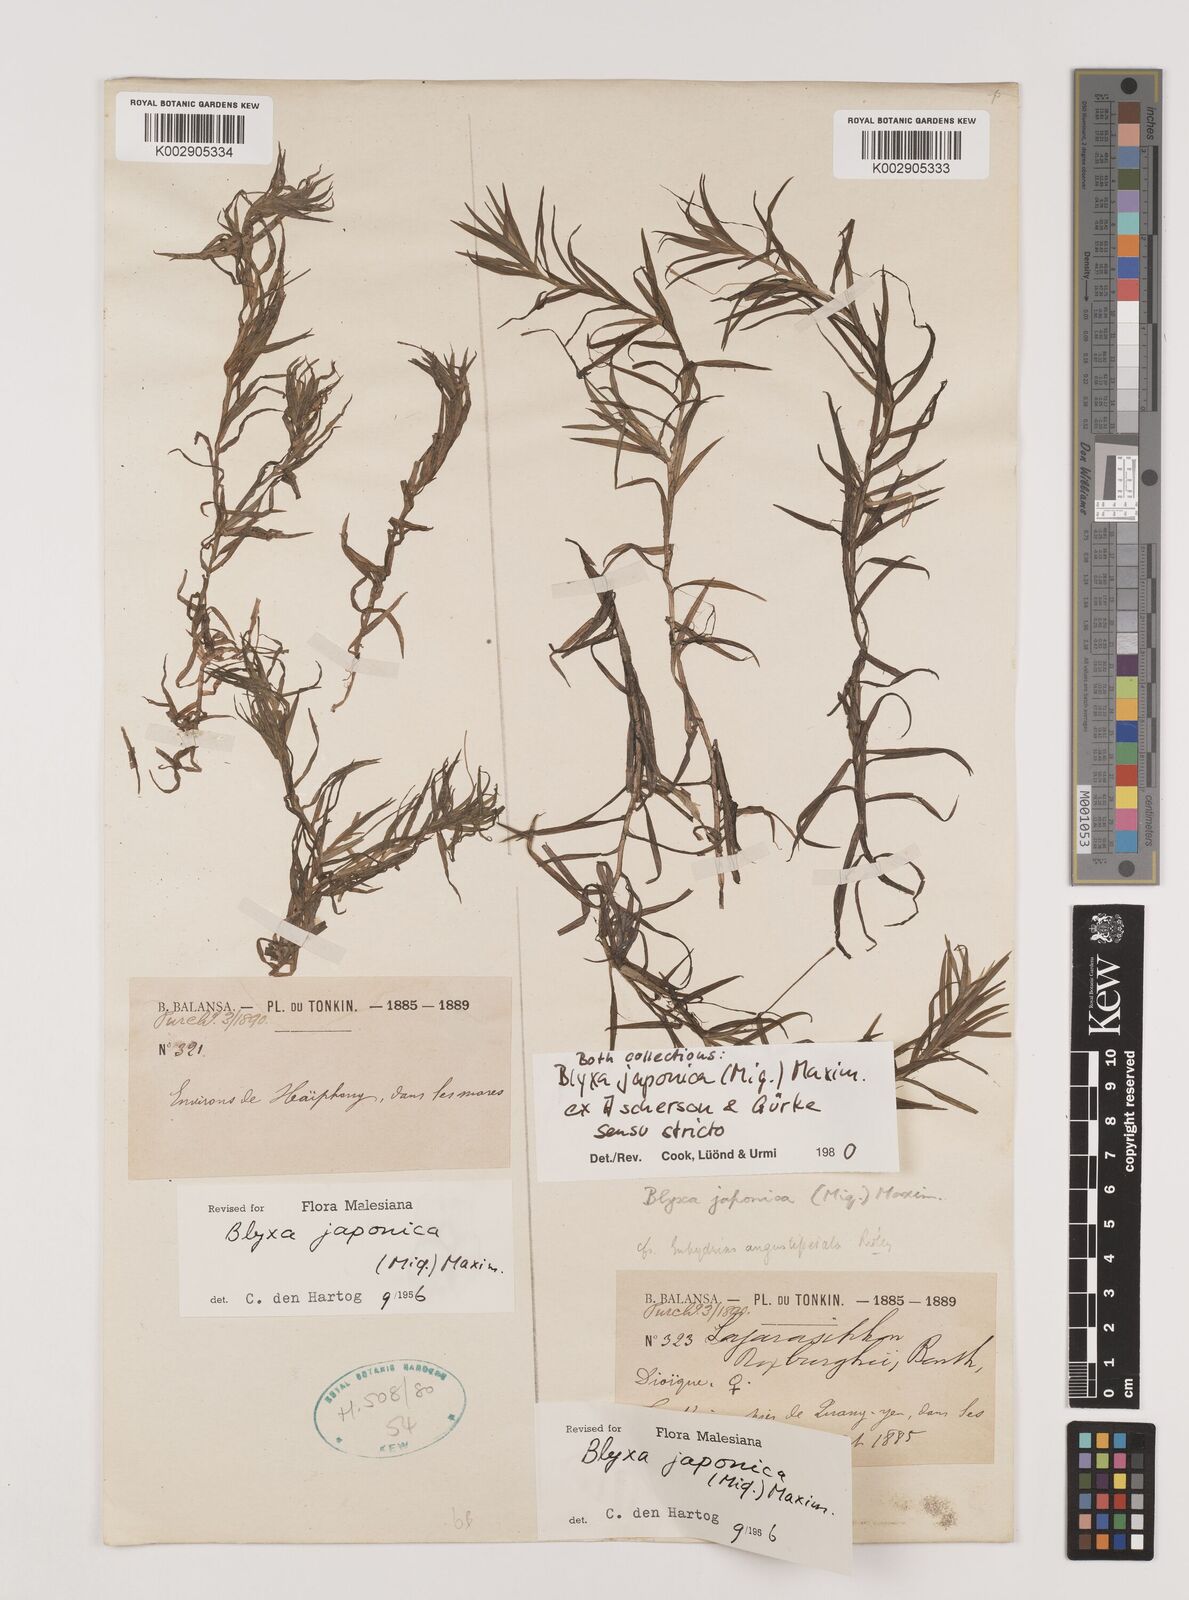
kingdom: Plantae
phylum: Tracheophyta
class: Liliopsida
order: Alismatales
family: Hydrocharitaceae
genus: Blyxa
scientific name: Blyxa japonica
